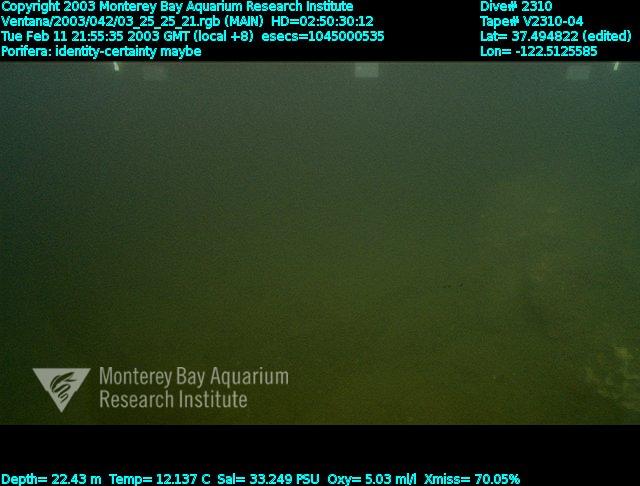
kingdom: Animalia
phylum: Porifera
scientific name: Porifera
